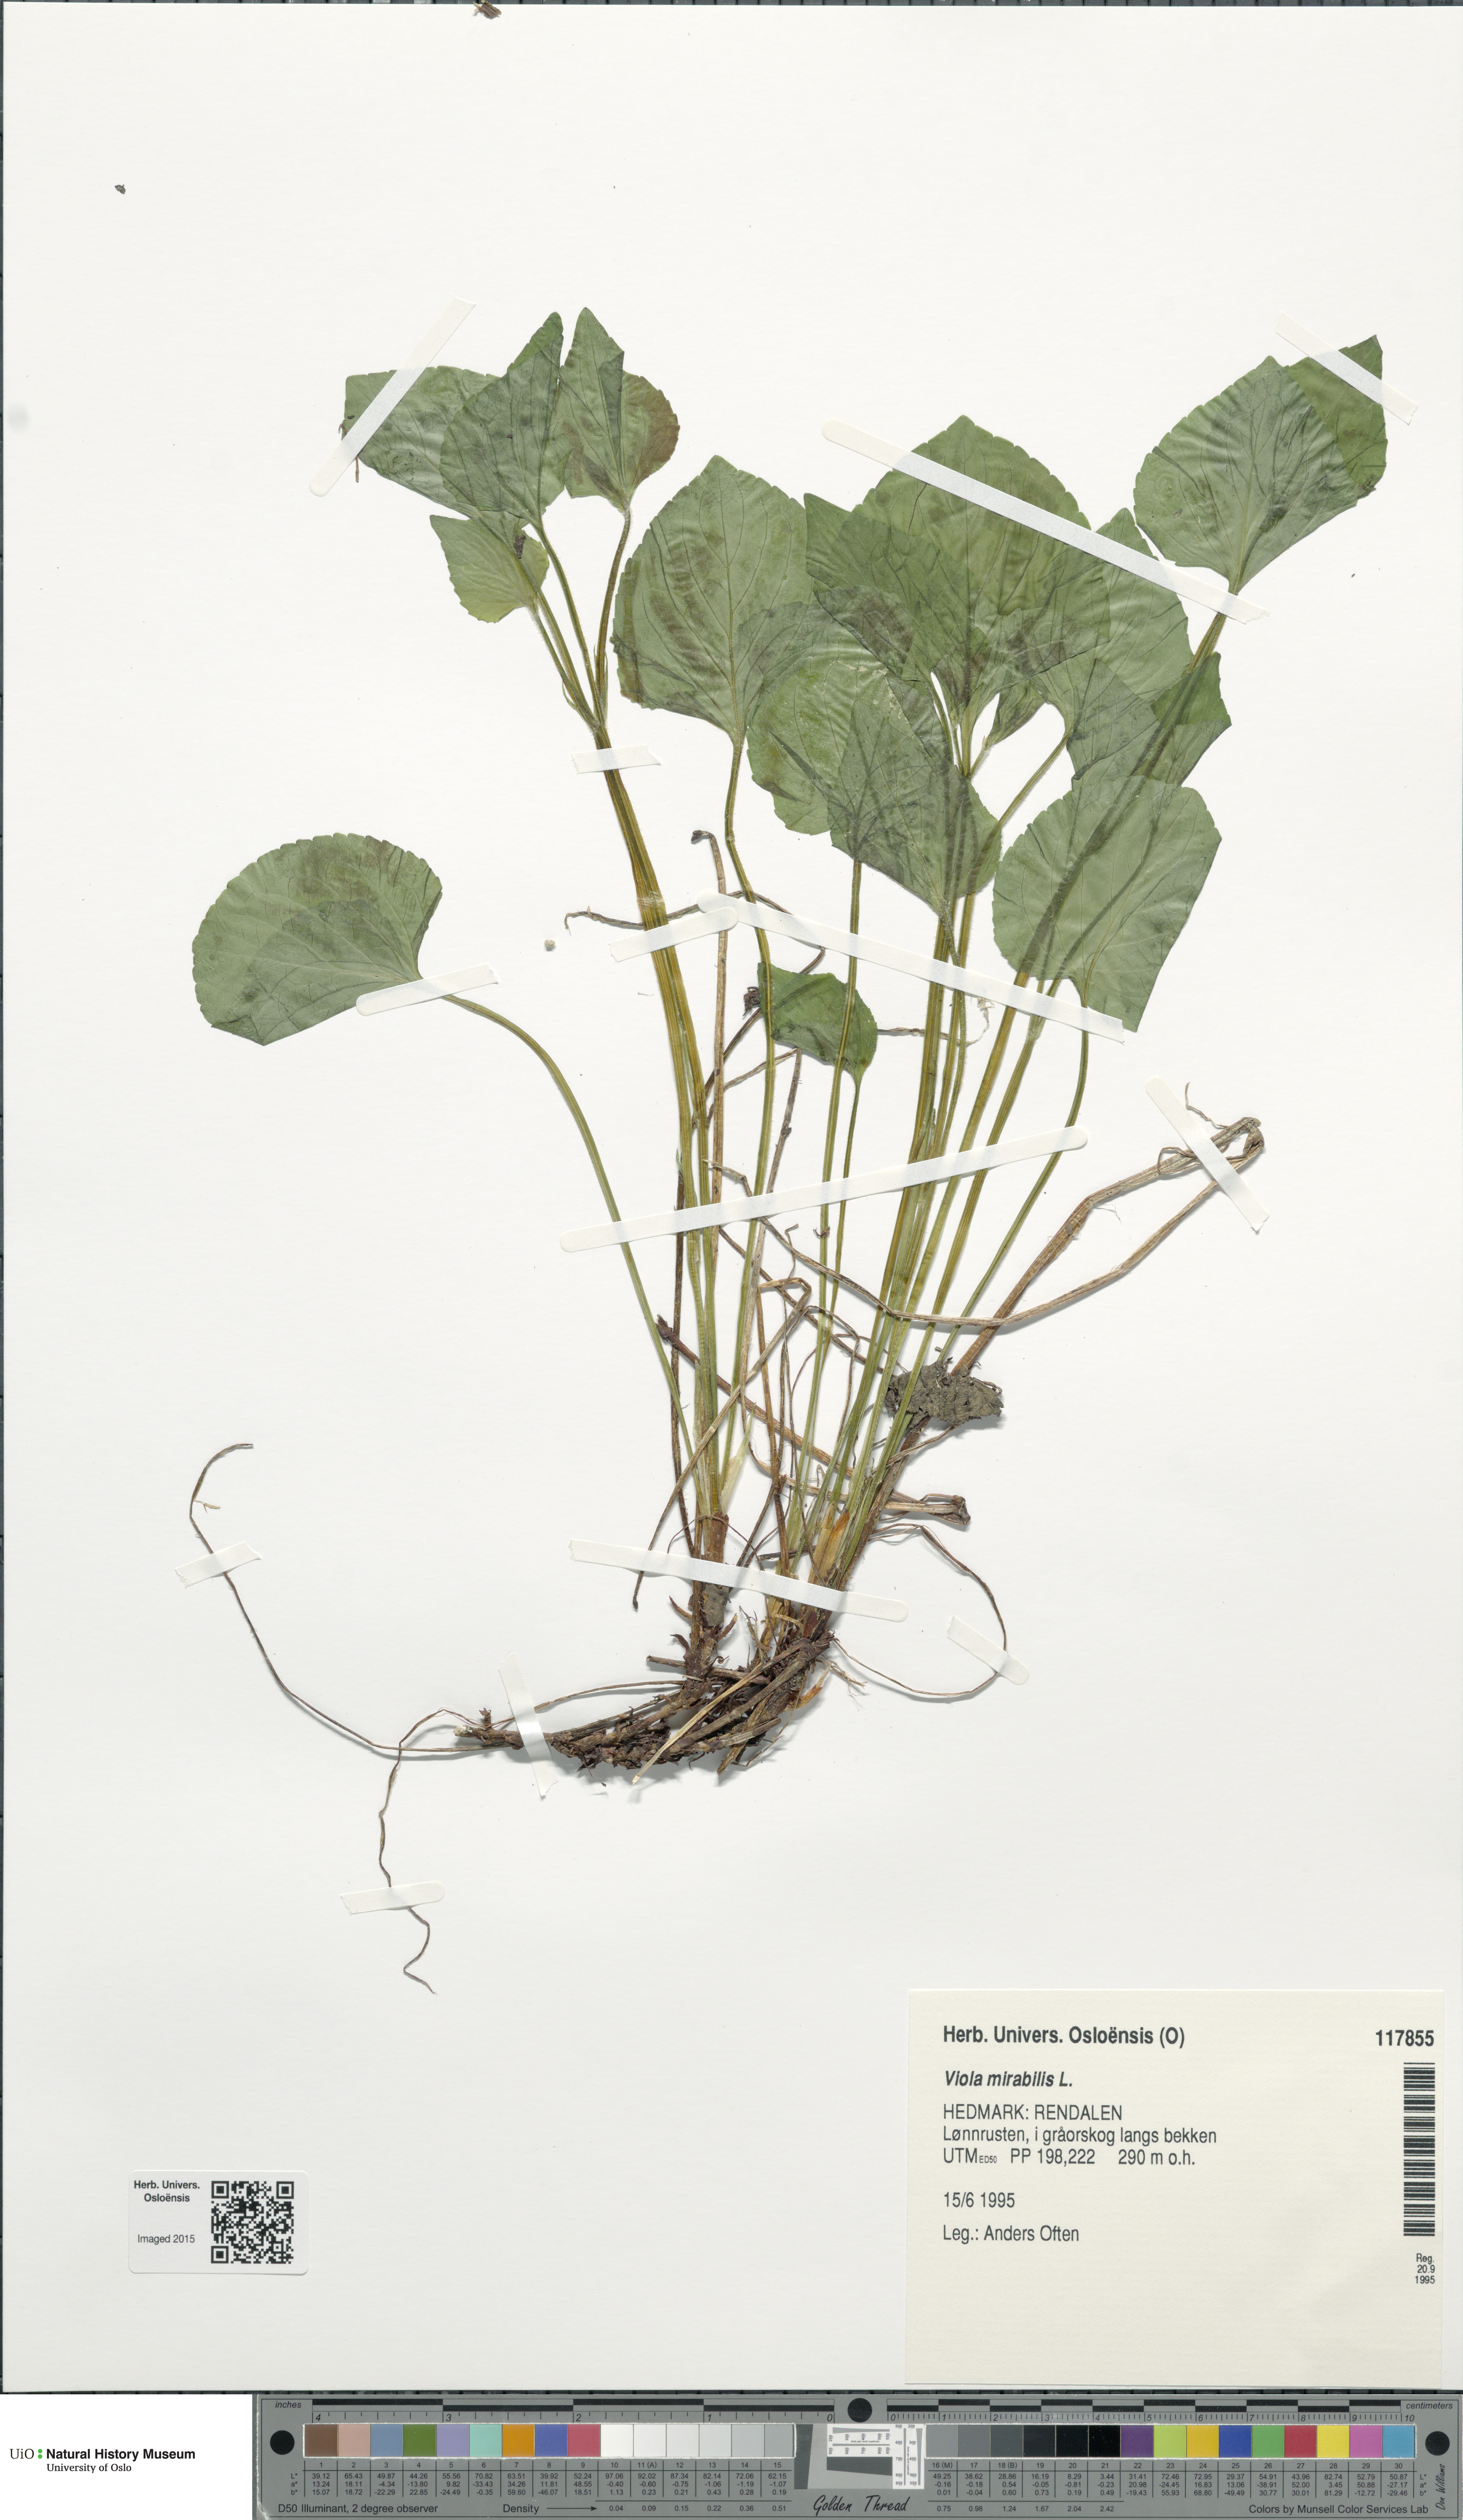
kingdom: Plantae
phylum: Tracheophyta
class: Magnoliopsida
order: Malpighiales
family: Violaceae
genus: Viola
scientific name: Viola mirabilis
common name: Wonder violet
